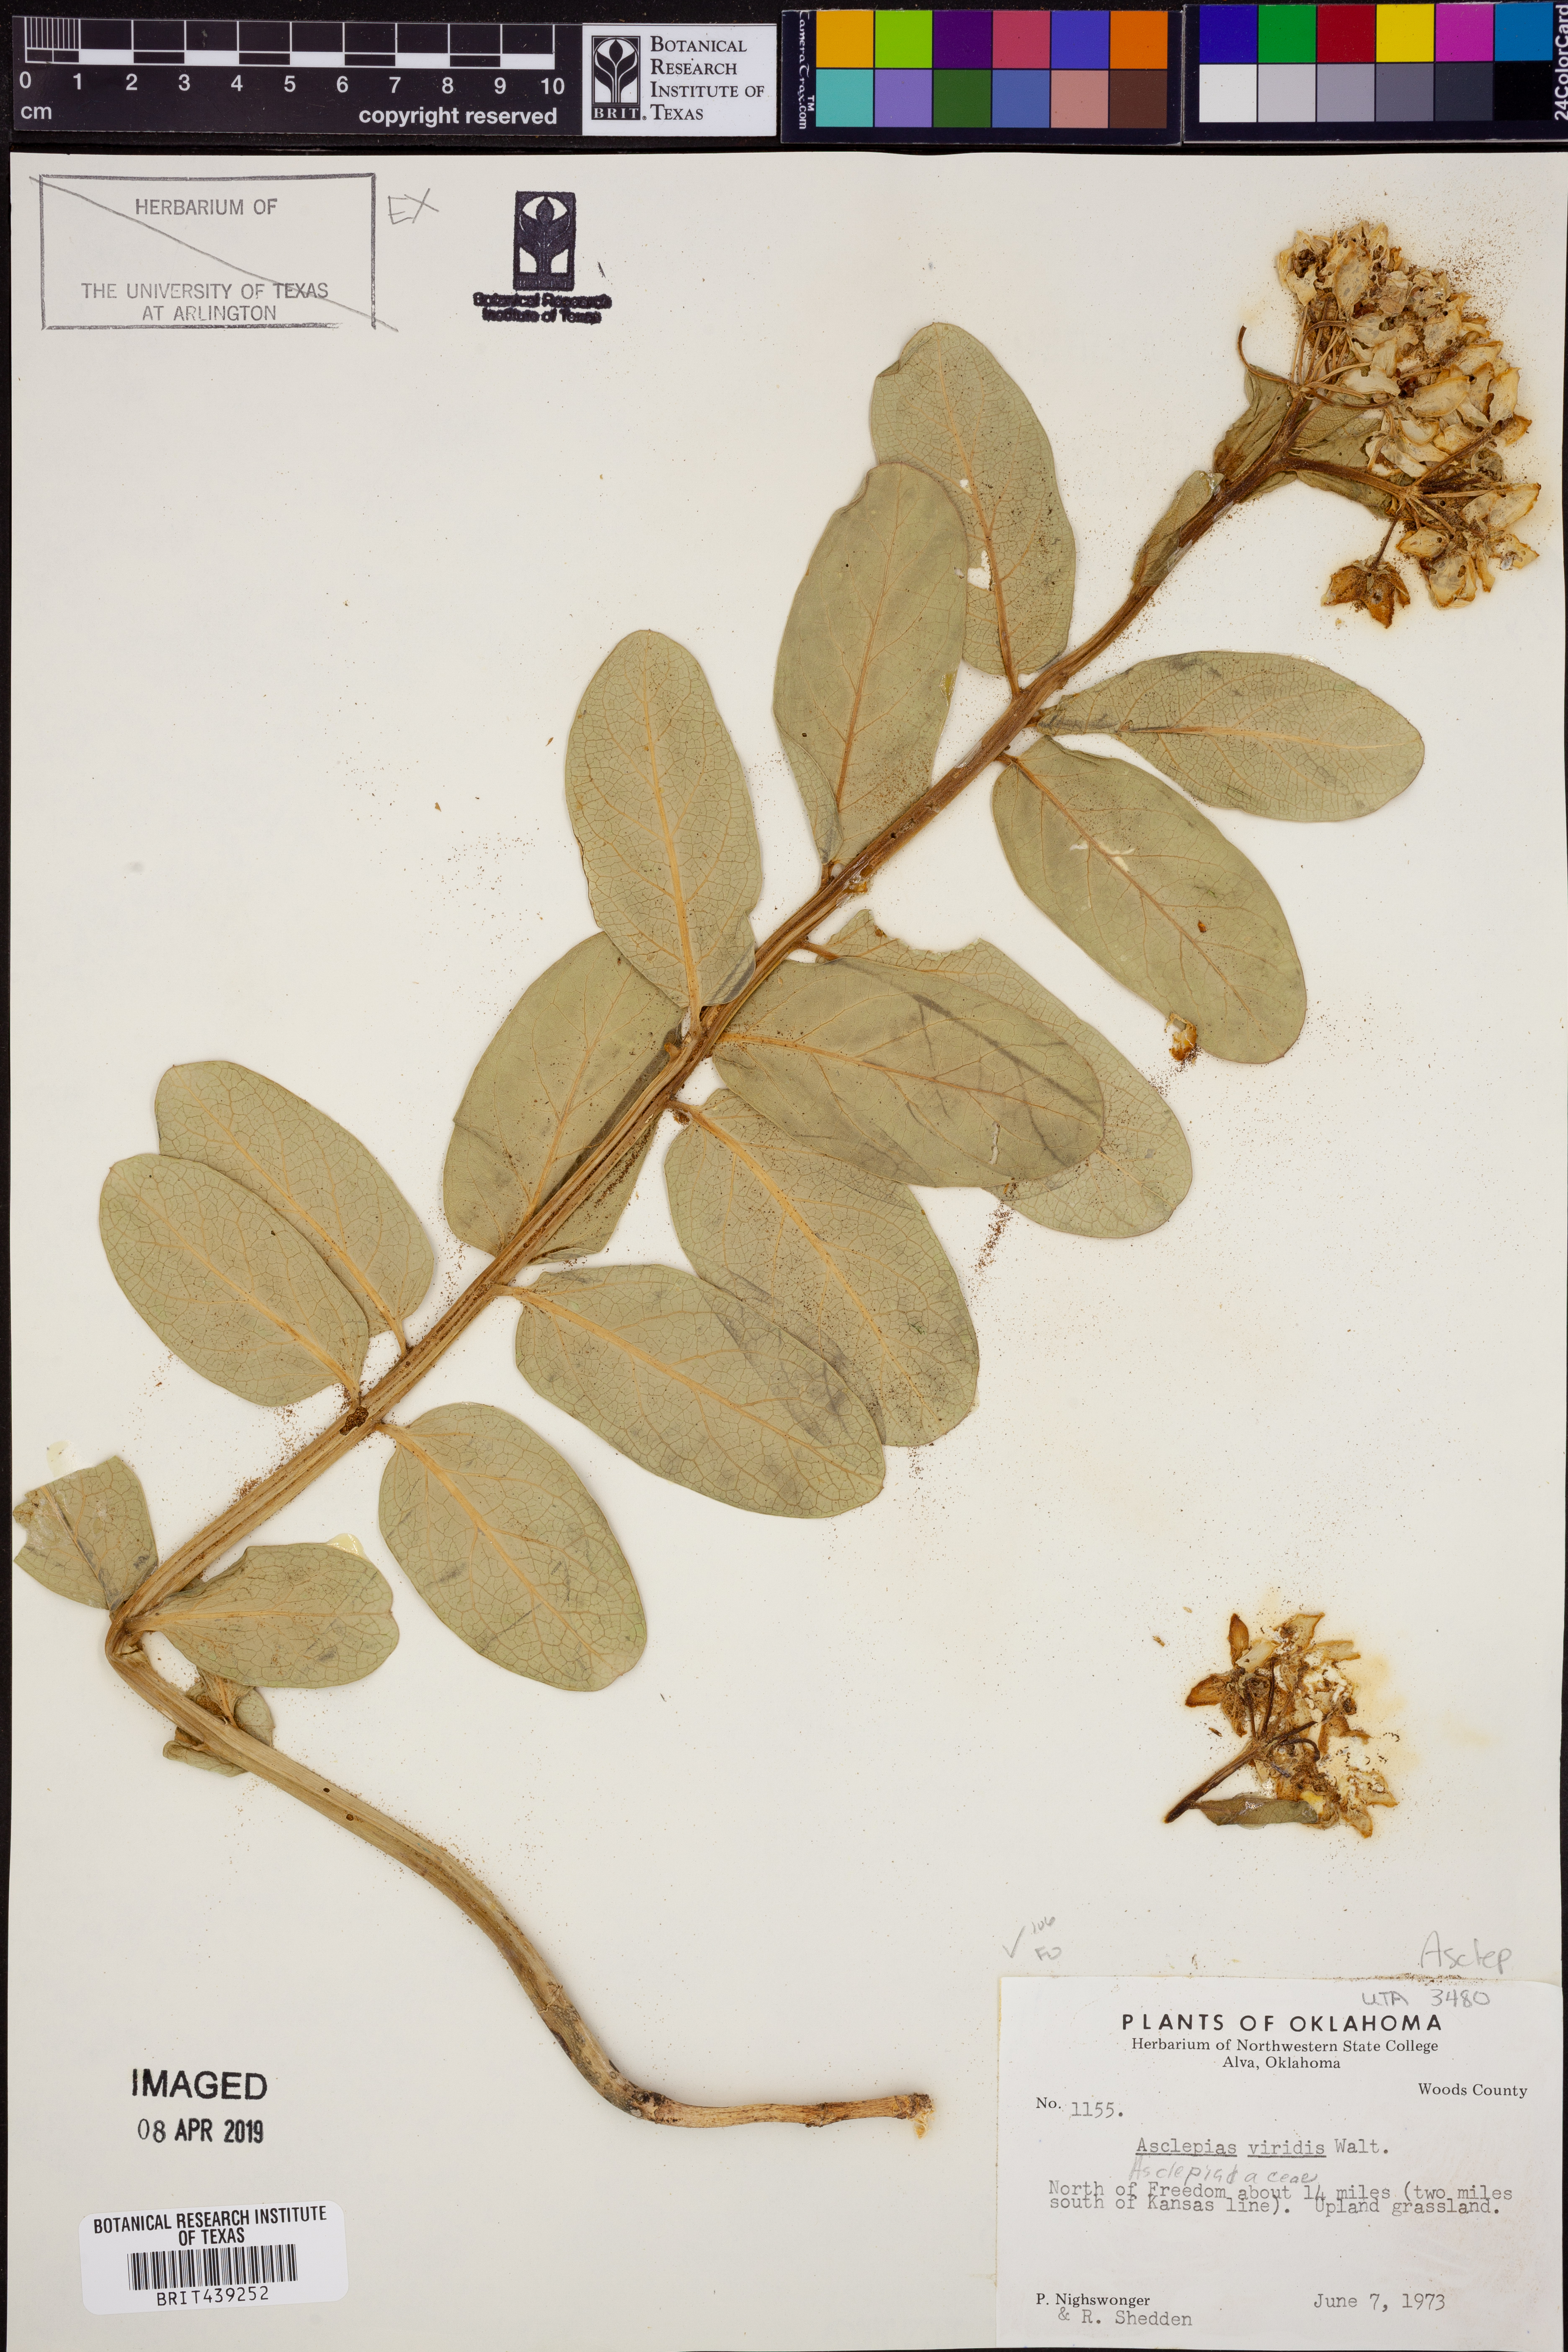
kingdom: Plantae
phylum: Tracheophyta
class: Magnoliopsida
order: Gentianales
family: Apocynaceae
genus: Asclepias
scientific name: Asclepias viridis
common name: Antelope-horns
